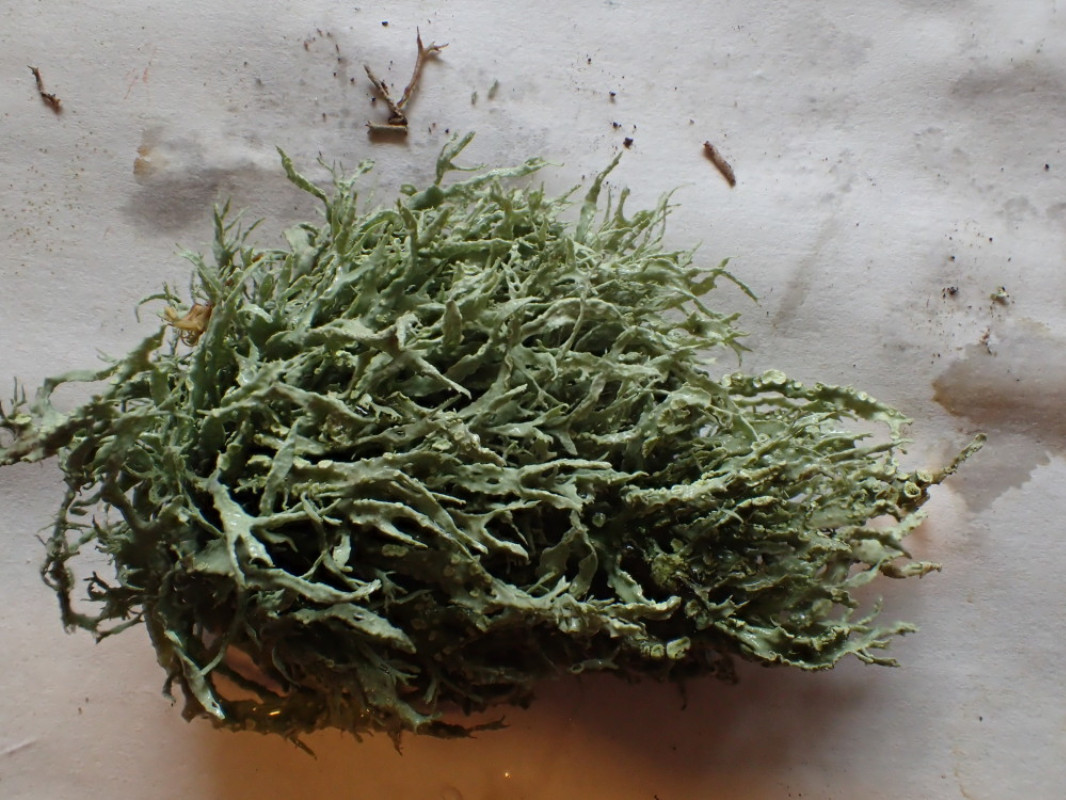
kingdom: Fungi
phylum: Ascomycota
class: Lecanoromycetes
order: Lecanorales
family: Ramalinaceae
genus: Ramalina
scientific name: Ramalina farinacea
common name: melet grenlav
